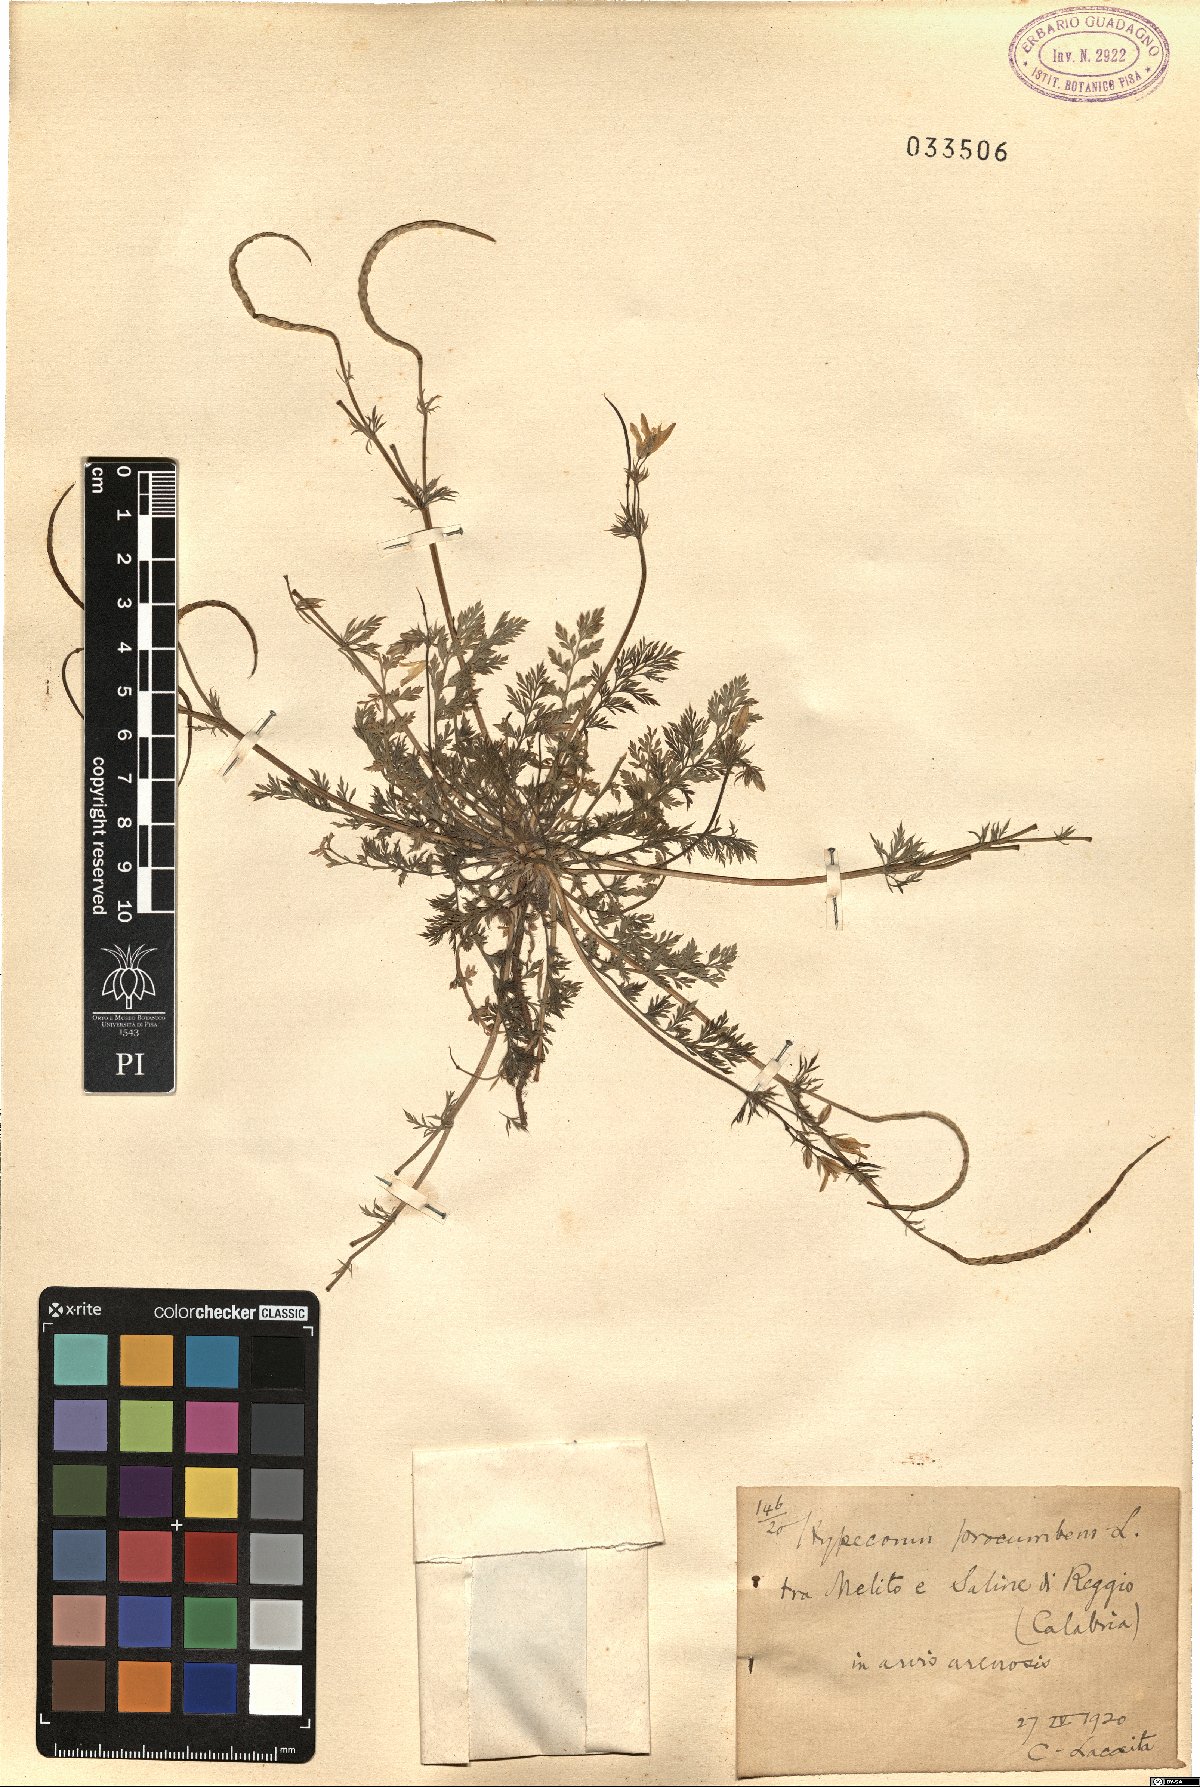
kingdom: Plantae
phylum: Tracheophyta
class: Magnoliopsida
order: Ranunculales
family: Papaveraceae
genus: Hypecoum
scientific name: Hypecoum procumbens
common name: Procumbent hypecoum
